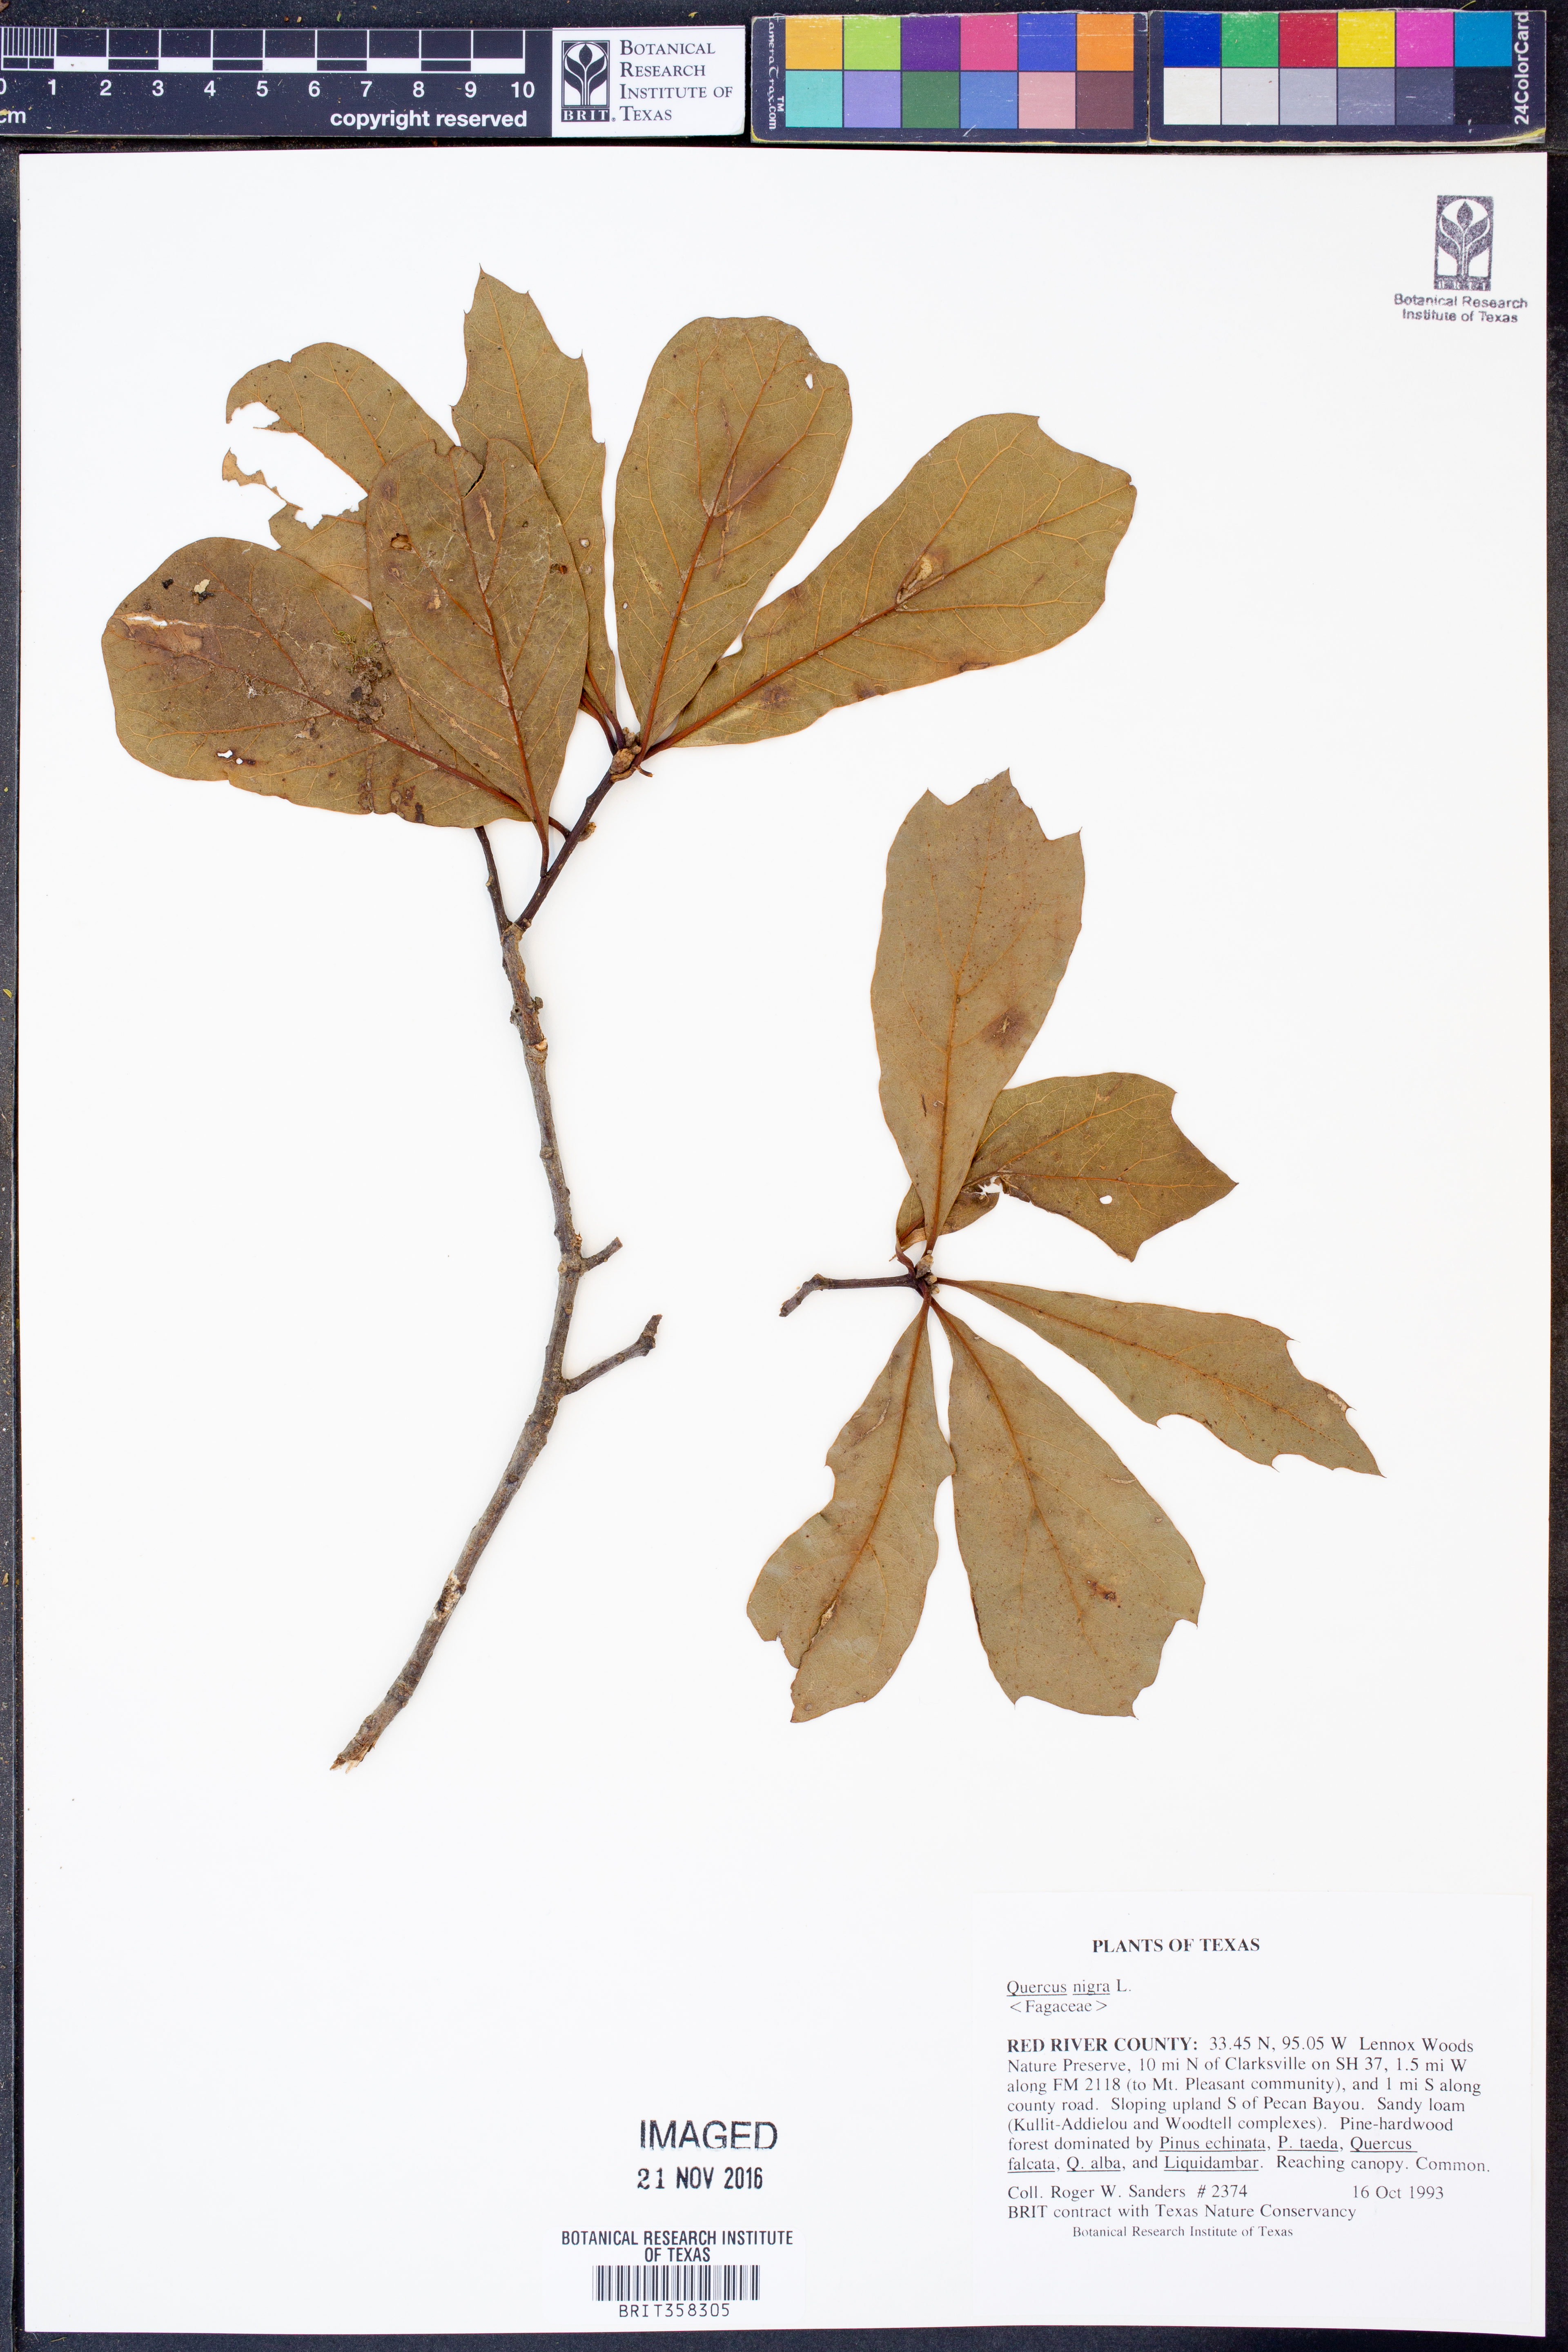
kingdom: Plantae
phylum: Tracheophyta
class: Magnoliopsida
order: Fagales
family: Fagaceae
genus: Quercus
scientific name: Quercus nigra
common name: Water oak
